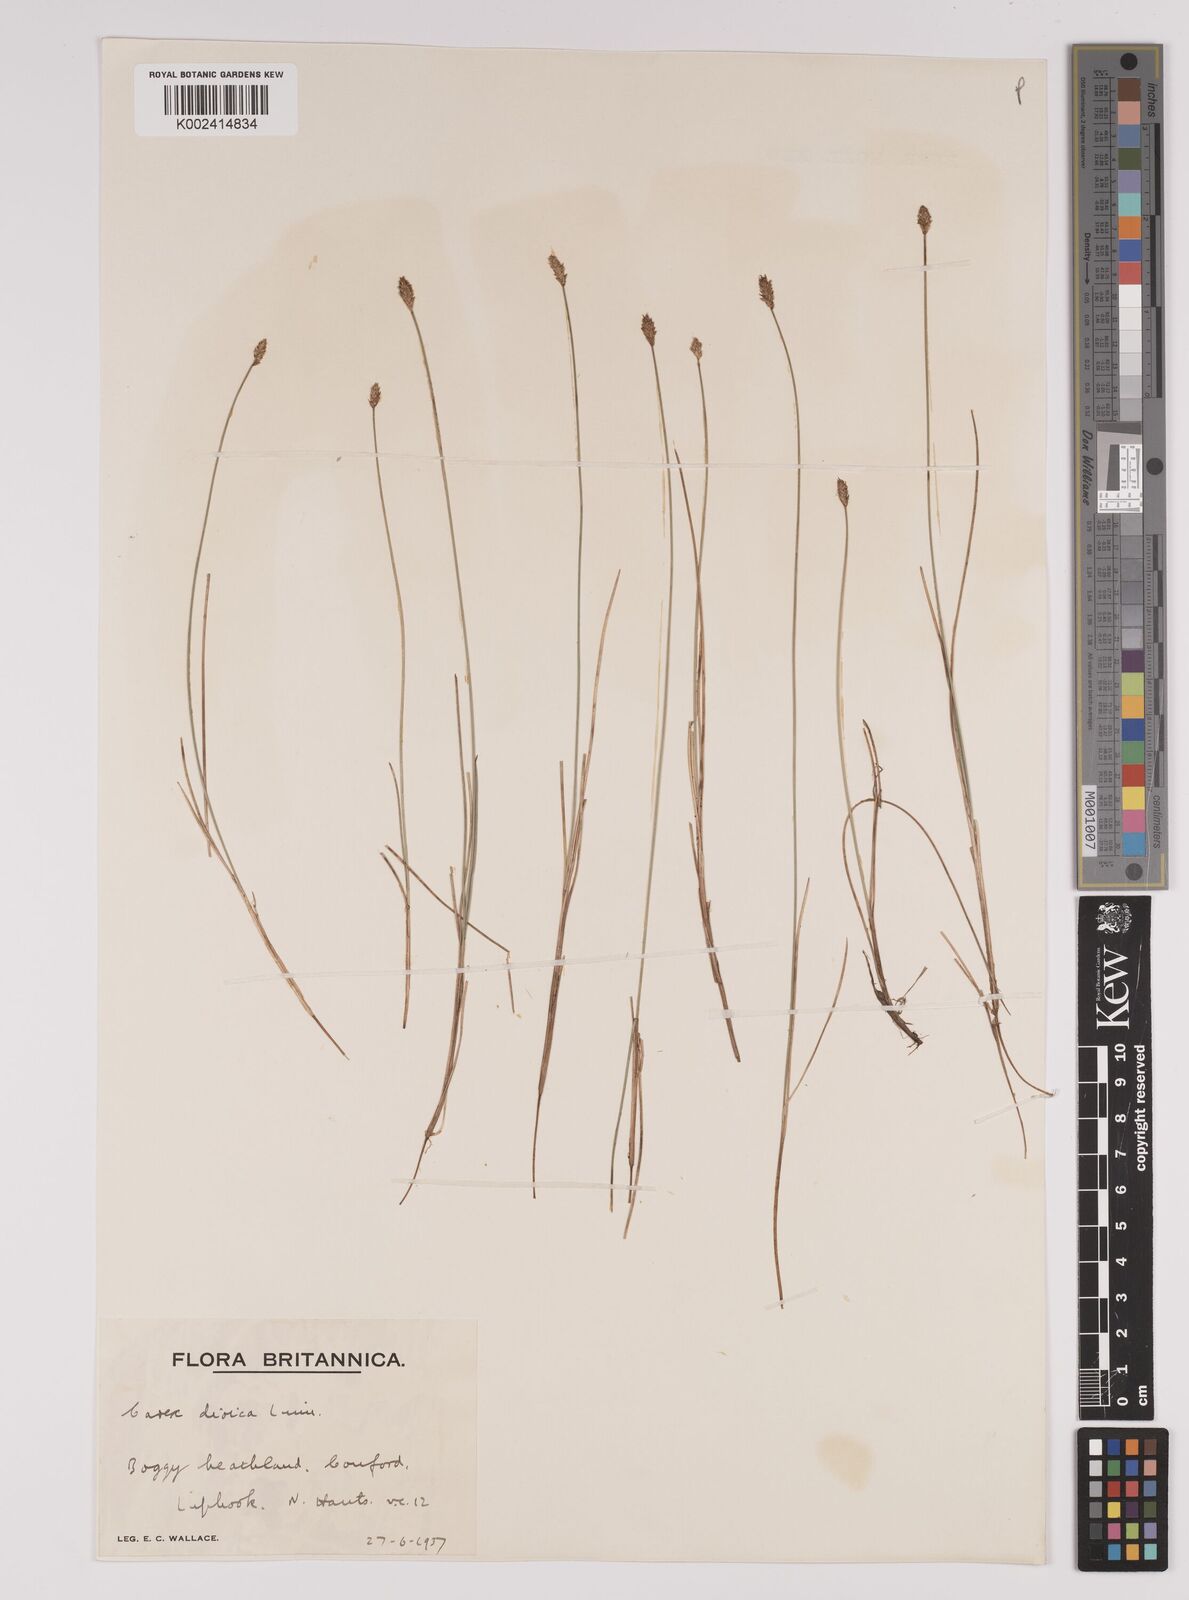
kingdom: Plantae
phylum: Tracheophyta
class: Liliopsida
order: Poales
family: Cyperaceae
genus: Carex
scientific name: Carex dioica
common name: Dioecious sedge
